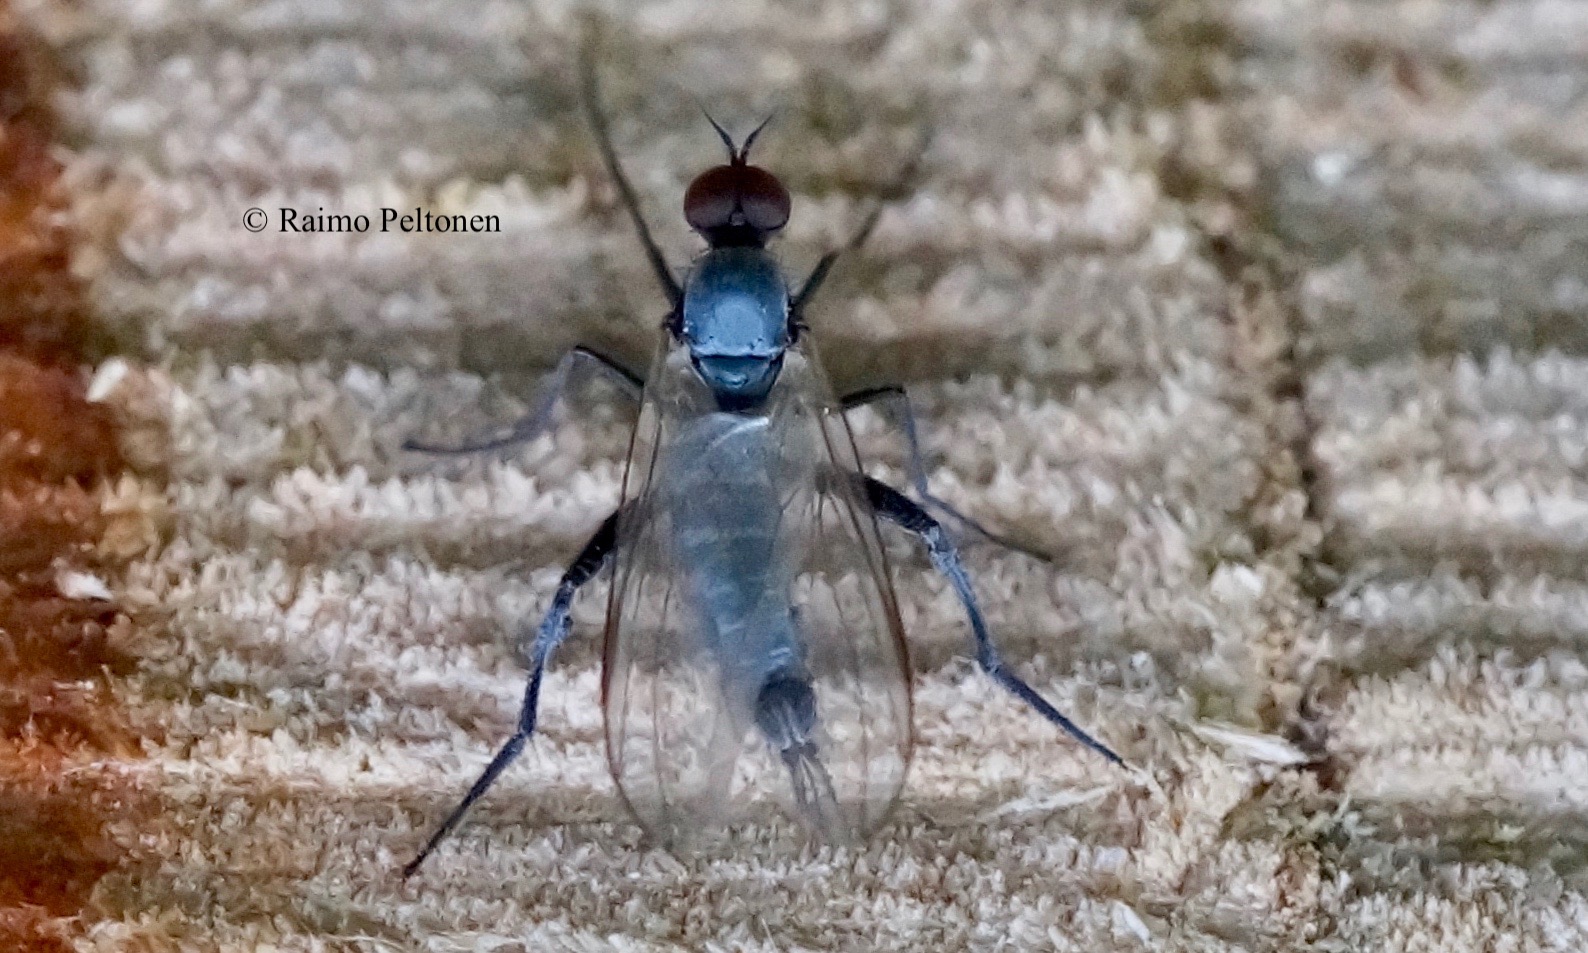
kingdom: Animalia
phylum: Arthropoda
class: Insecta
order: Diptera
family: Empididae
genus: Rhamphomyia
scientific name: Rhamphomyia pilifer
